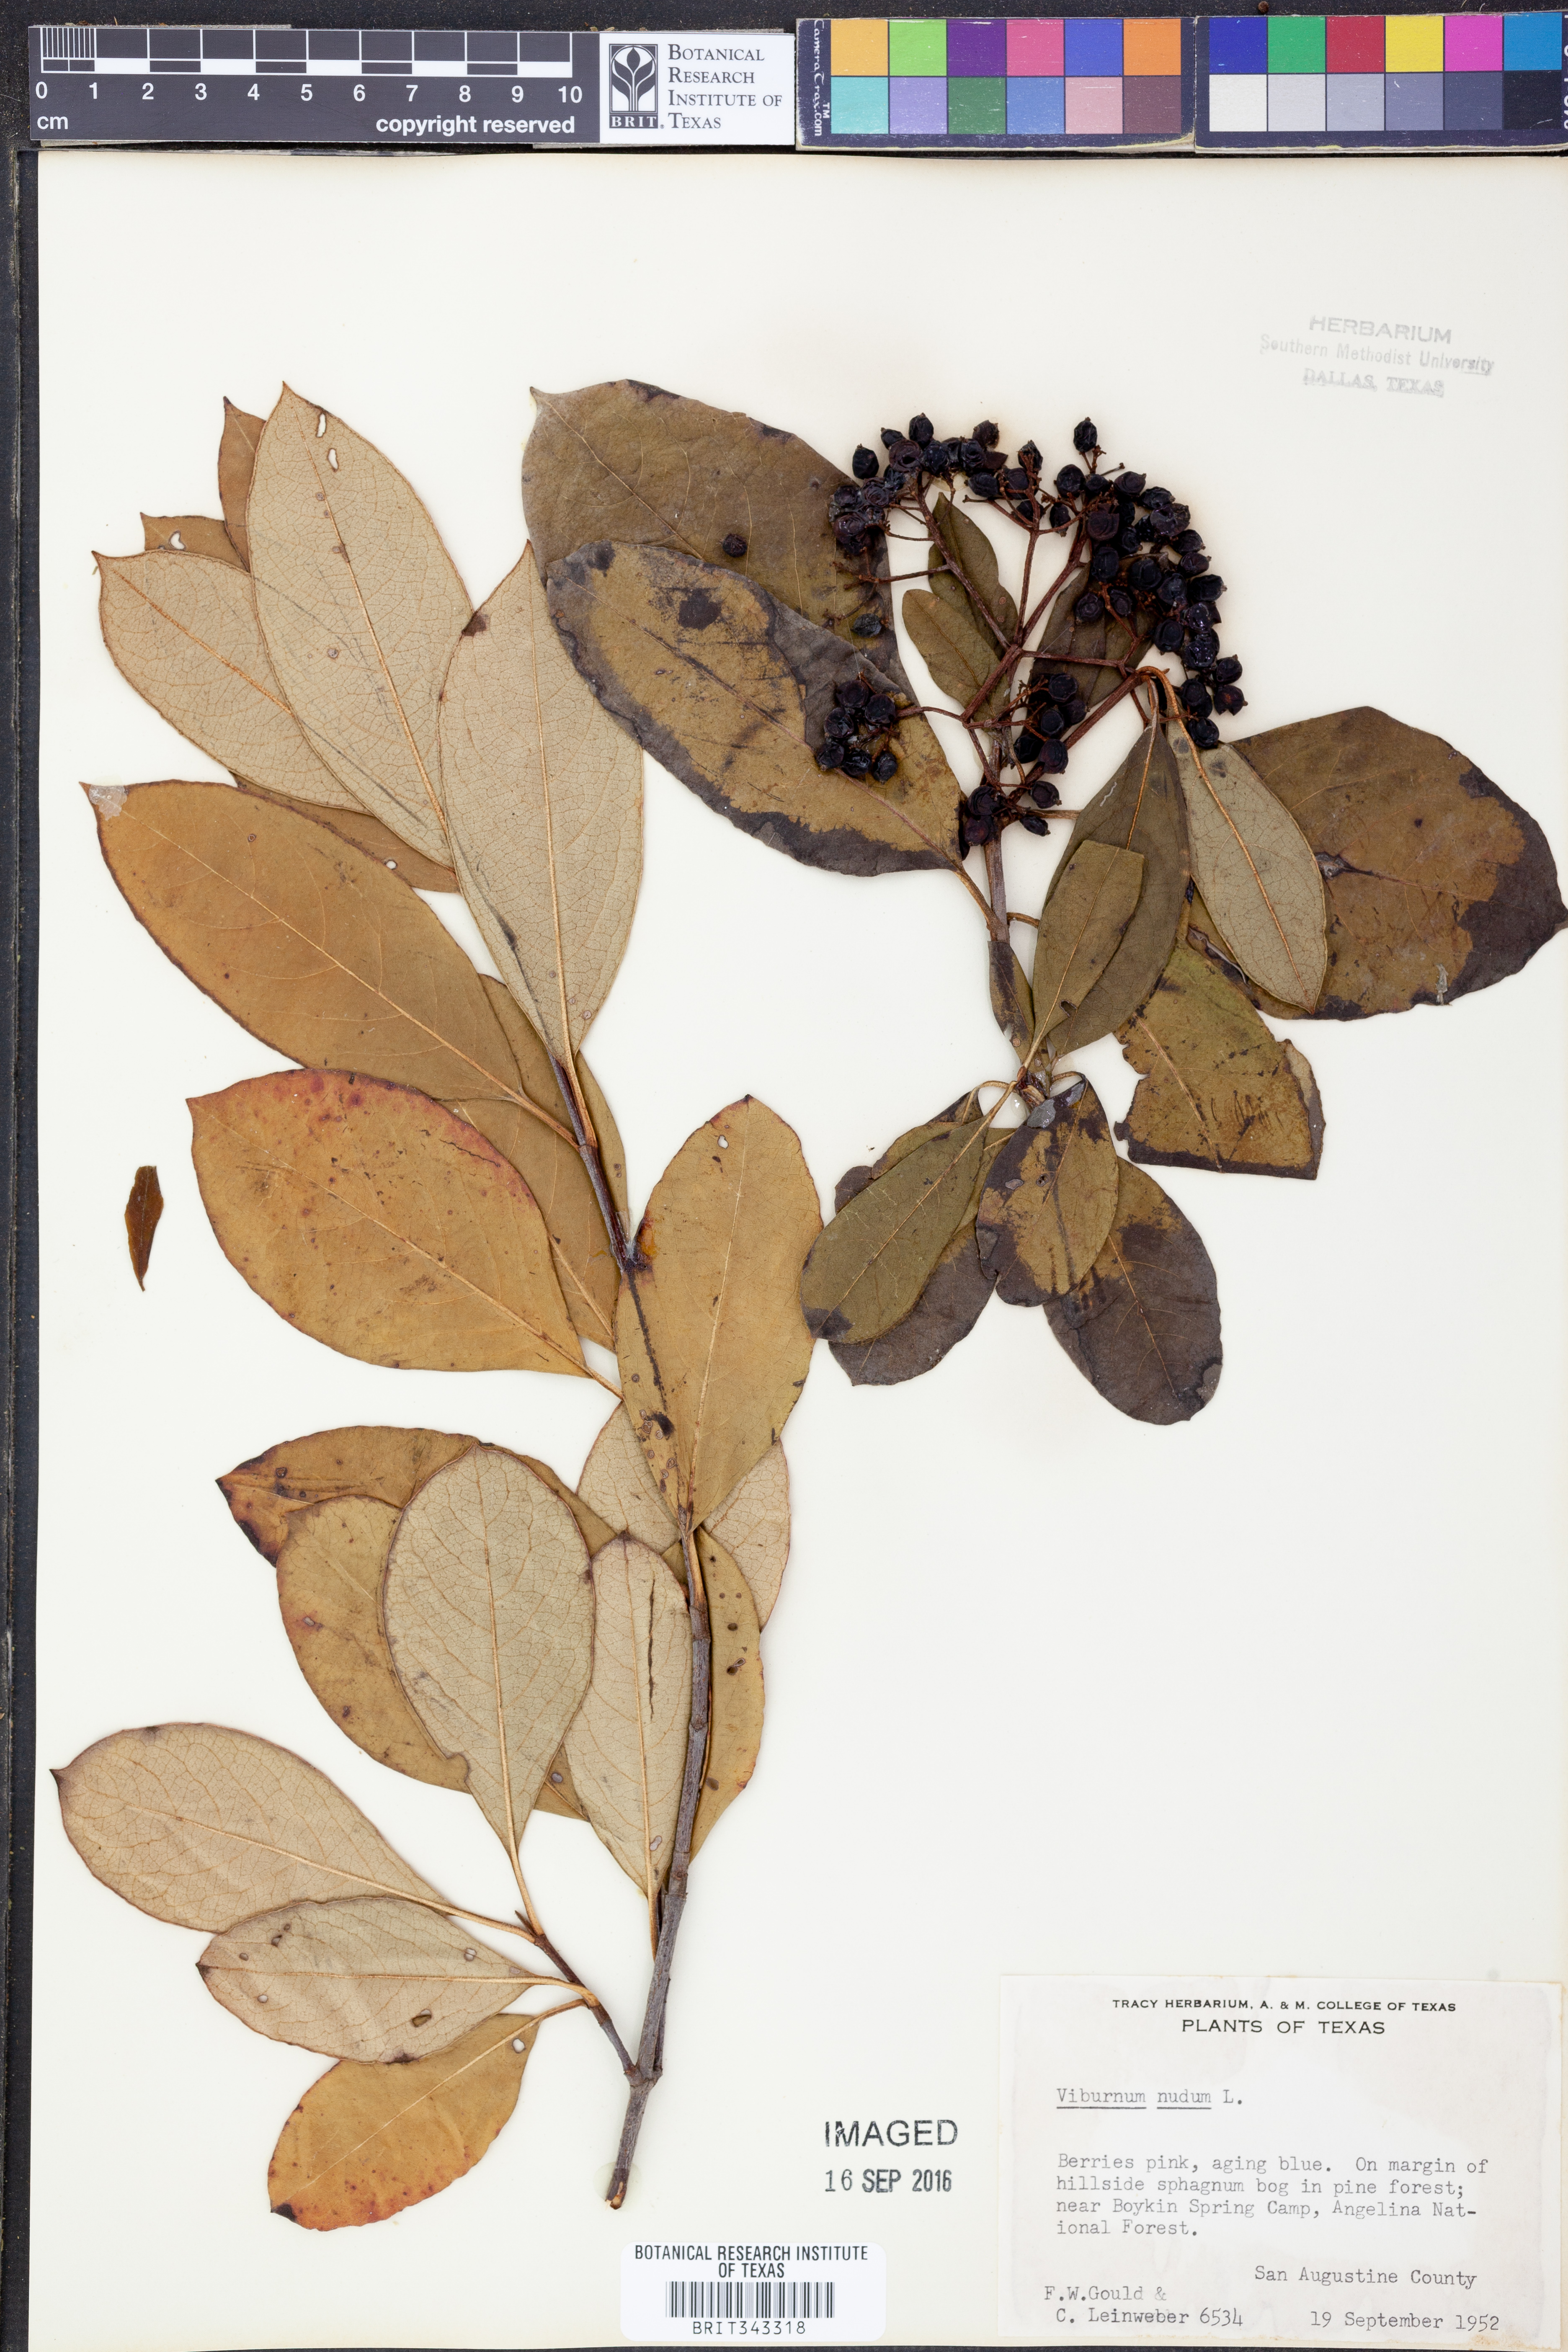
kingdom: Plantae
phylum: Tracheophyta
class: Magnoliopsida
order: Dipsacales
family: Viburnaceae
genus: Viburnum
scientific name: Viburnum nudum
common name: Possum haw
